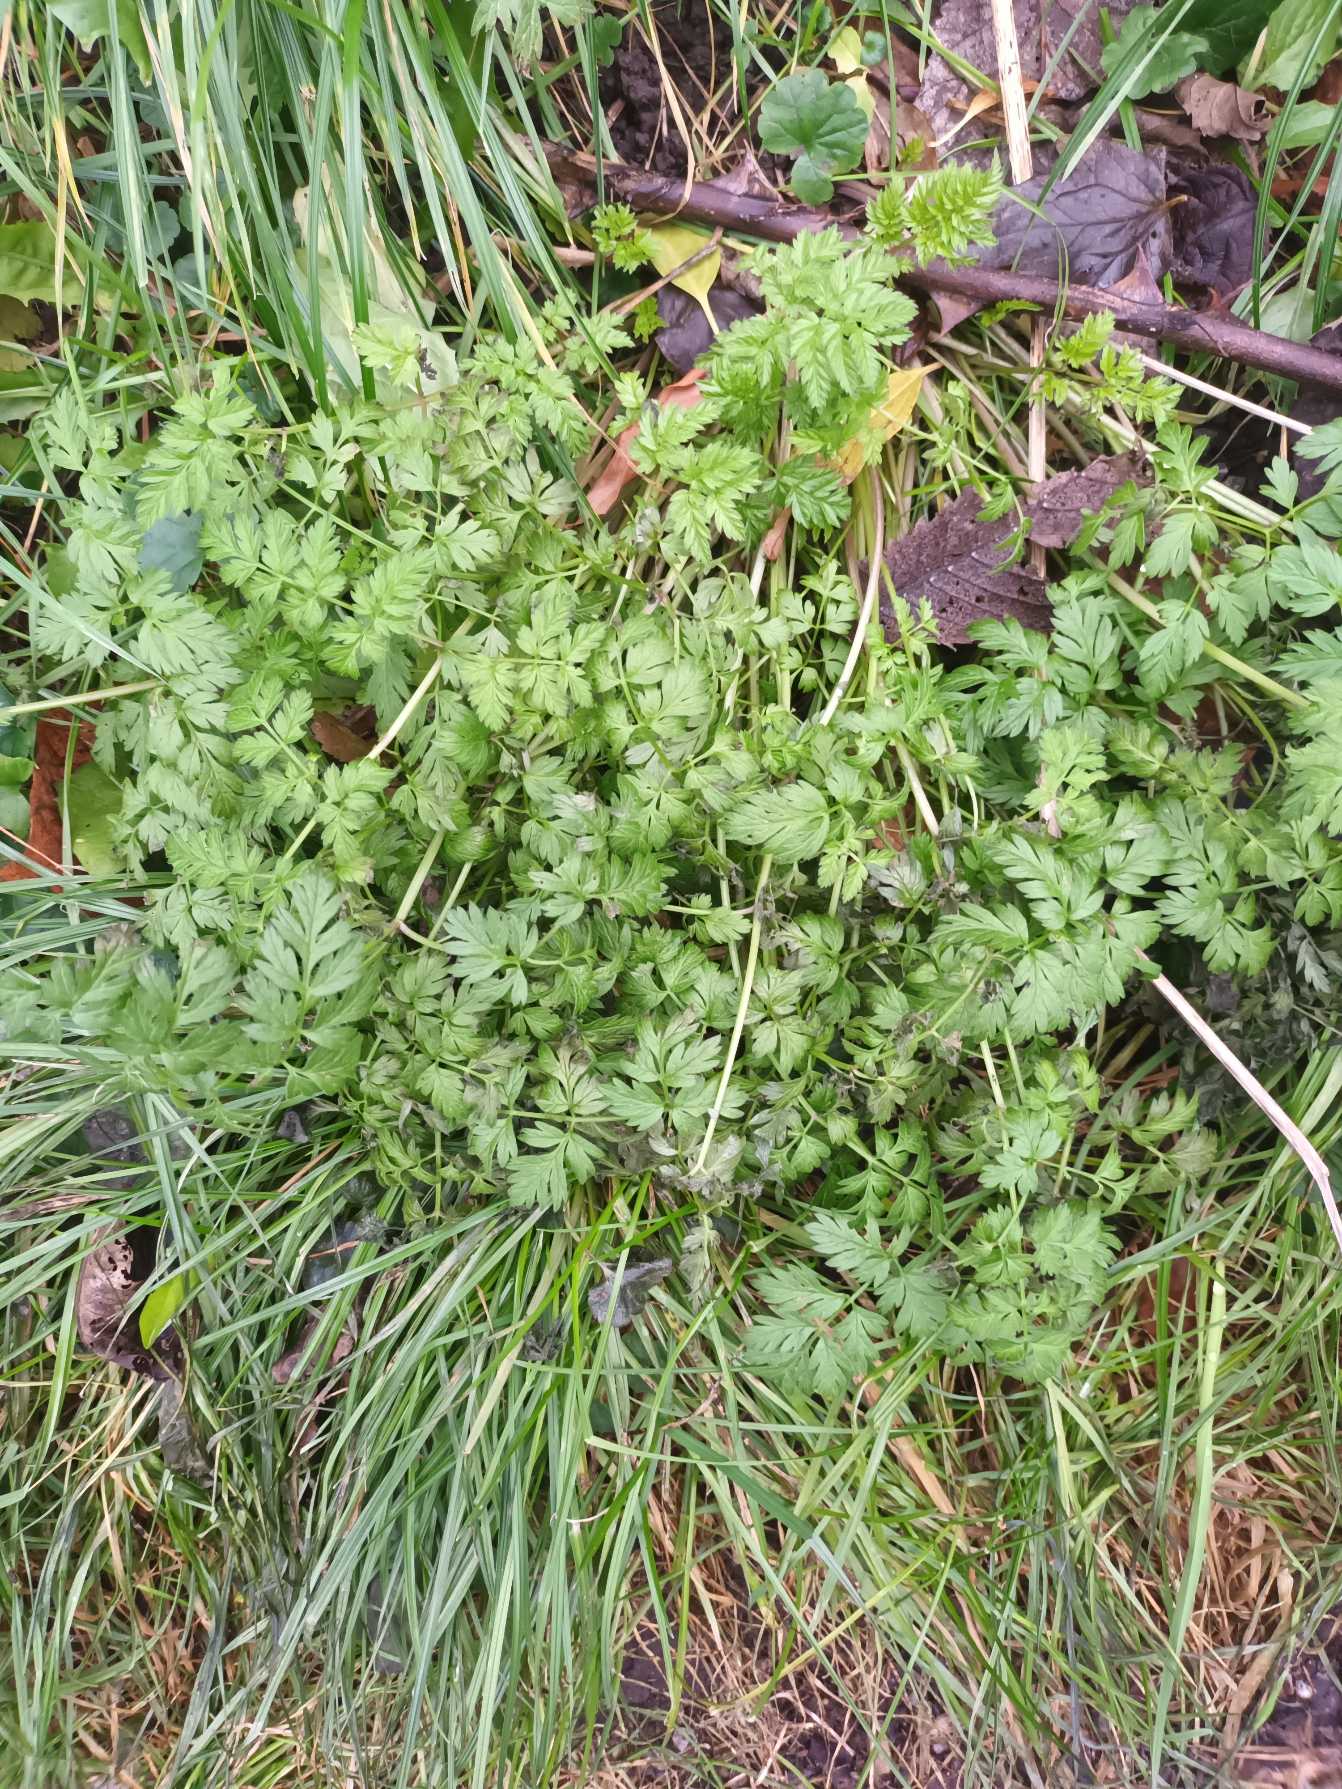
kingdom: Plantae
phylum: Tracheophyta
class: Magnoliopsida
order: Apiales
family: Apiaceae
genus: Anthriscus
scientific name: Anthriscus sylvestris
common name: Vild kørvel
